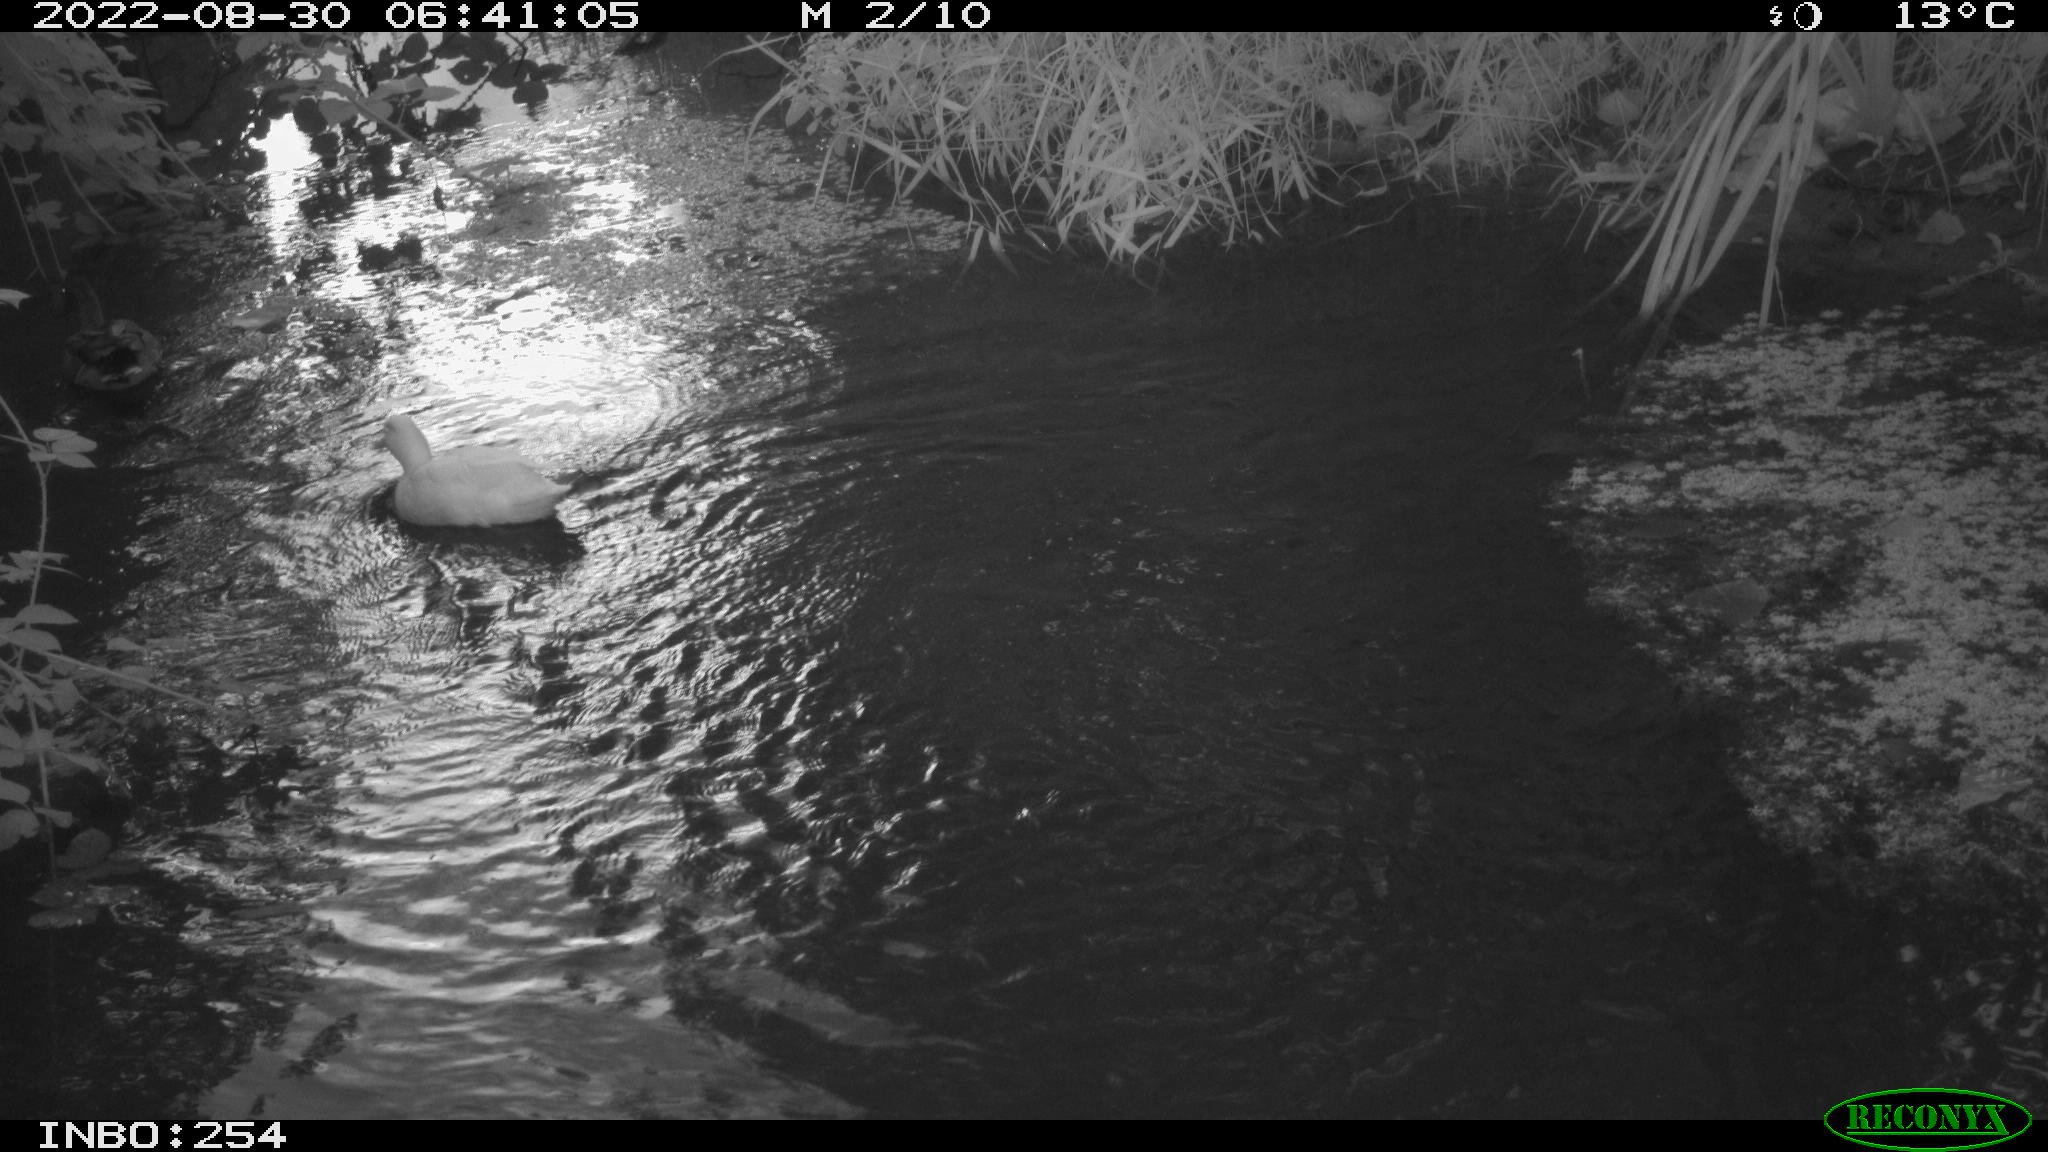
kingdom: Animalia
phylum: Chordata
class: Aves
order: Anseriformes
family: Anatidae
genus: Anas
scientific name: Anas platyrhynchos
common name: Mallard
